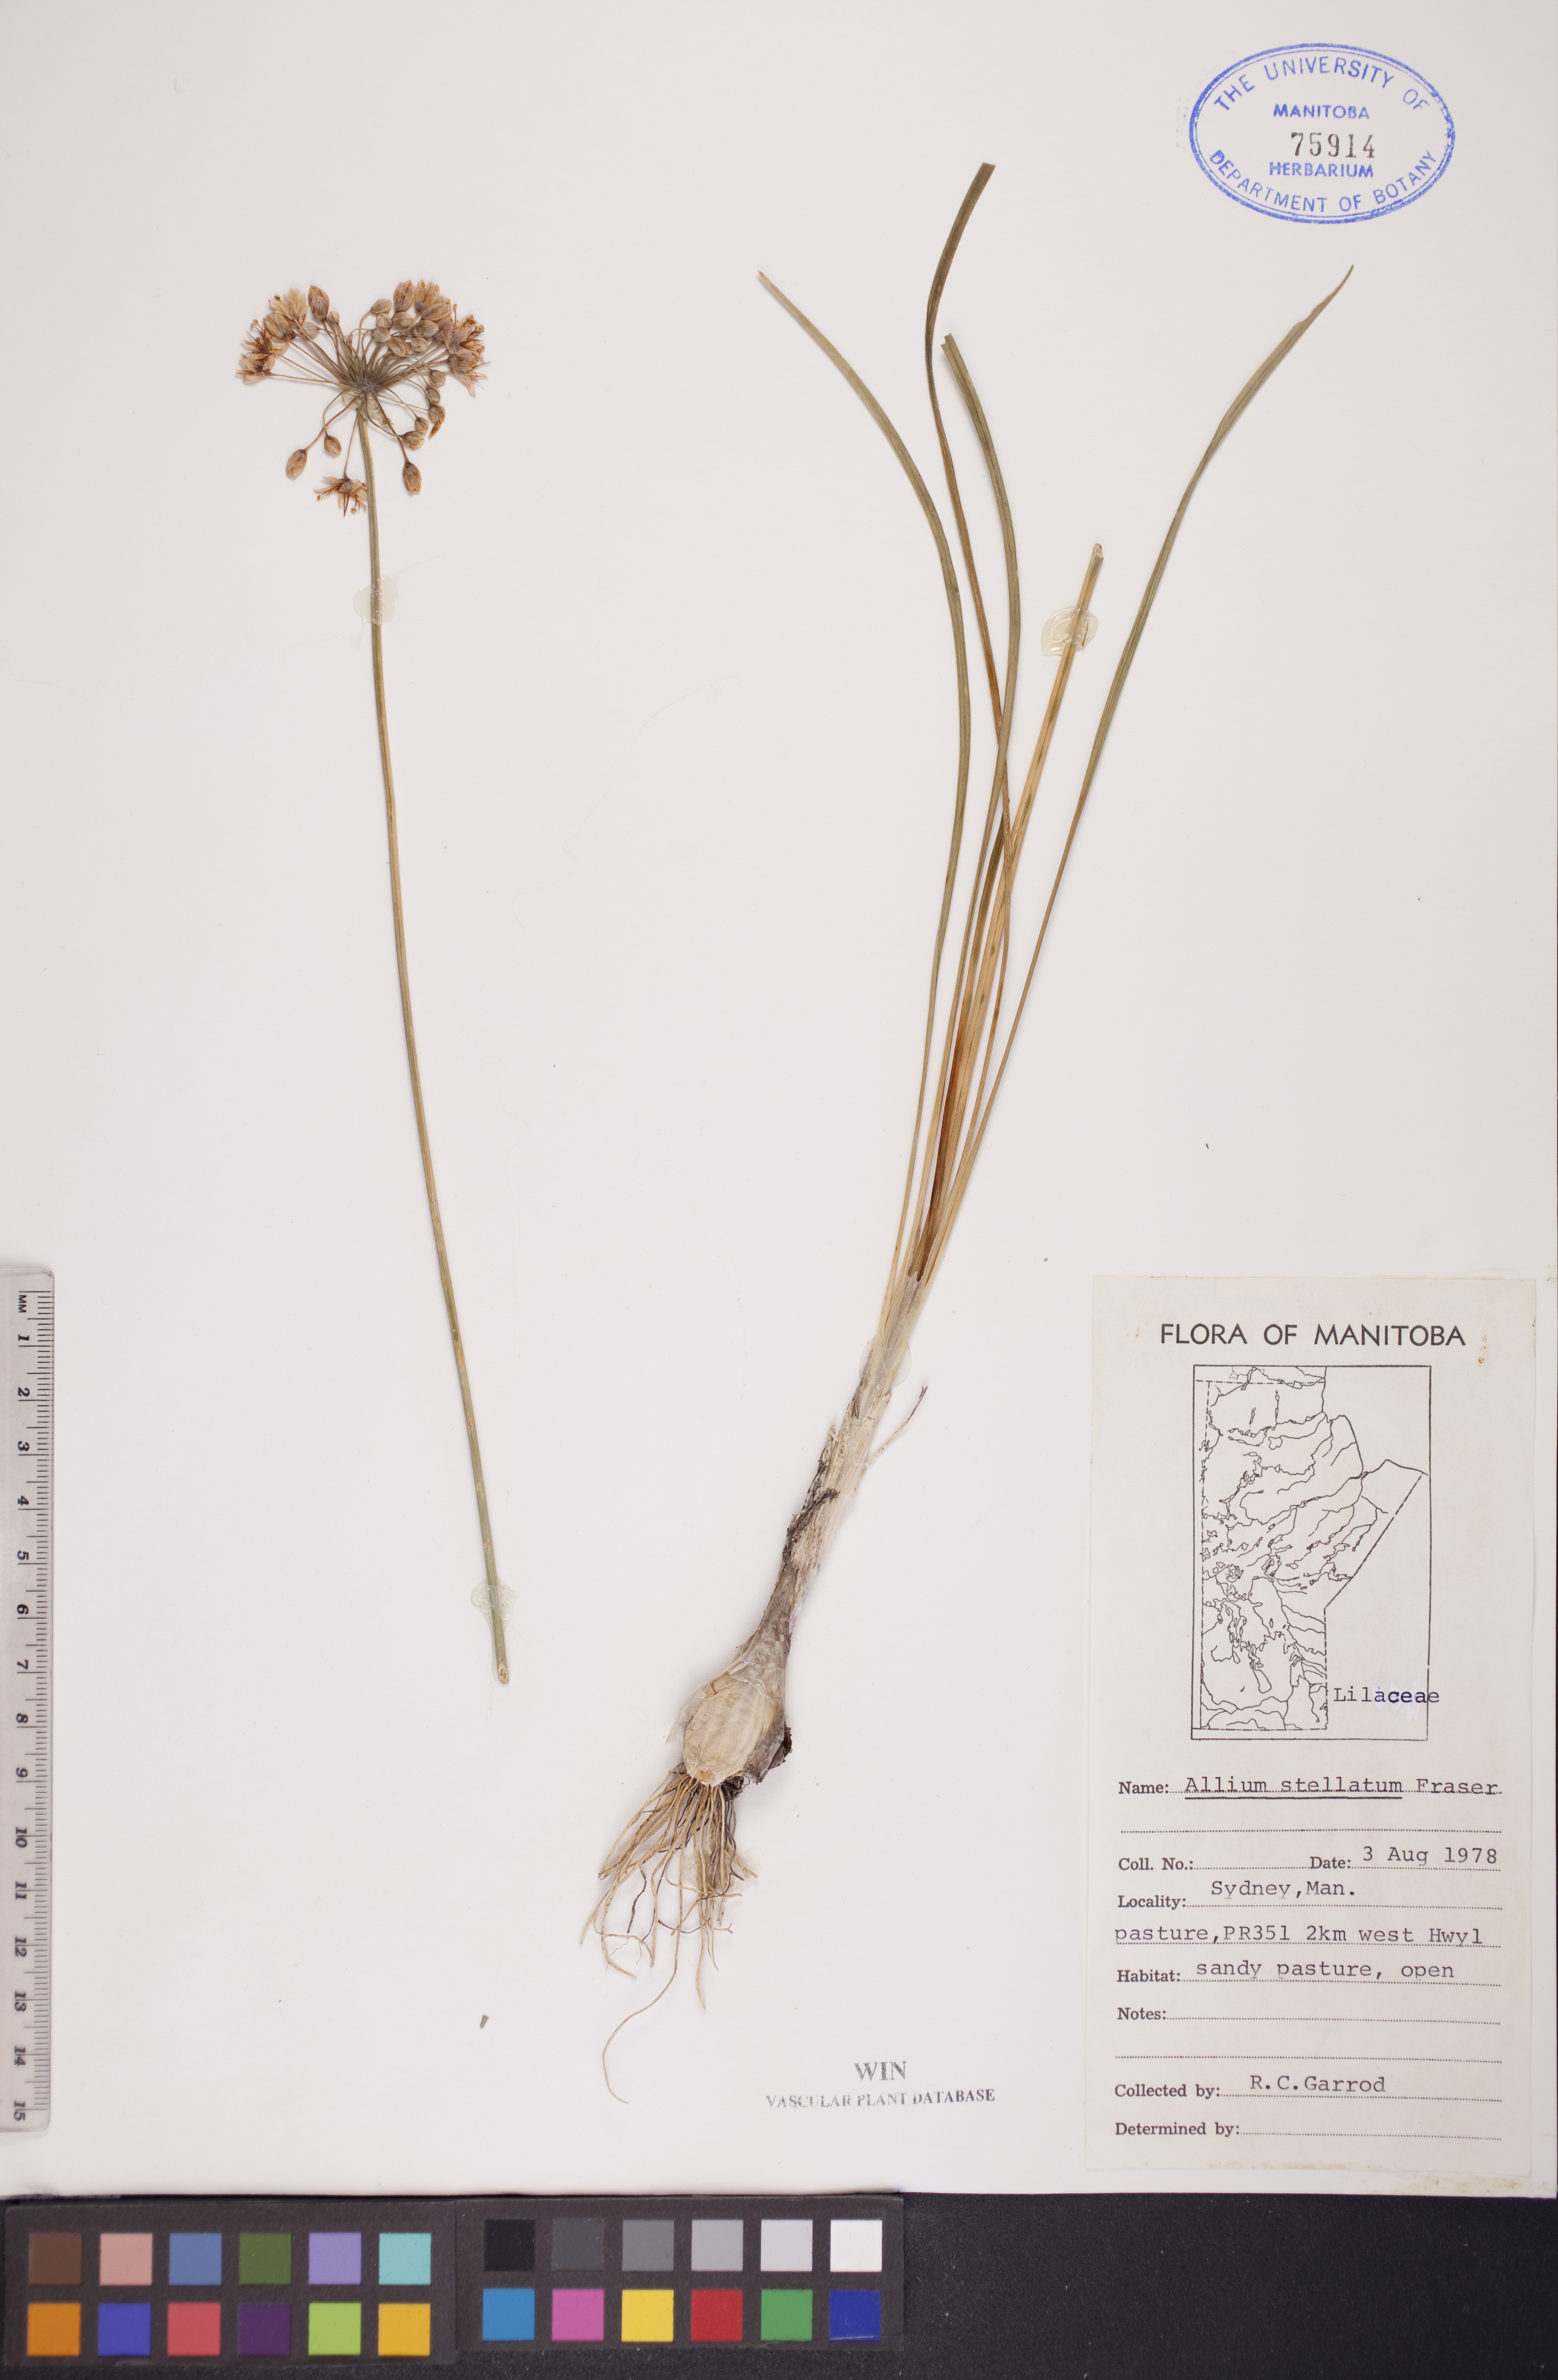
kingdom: Plantae
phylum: Tracheophyta
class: Liliopsida
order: Asparagales
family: Amaryllidaceae
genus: Allium
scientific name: Allium stellatum
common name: Autumn onion
